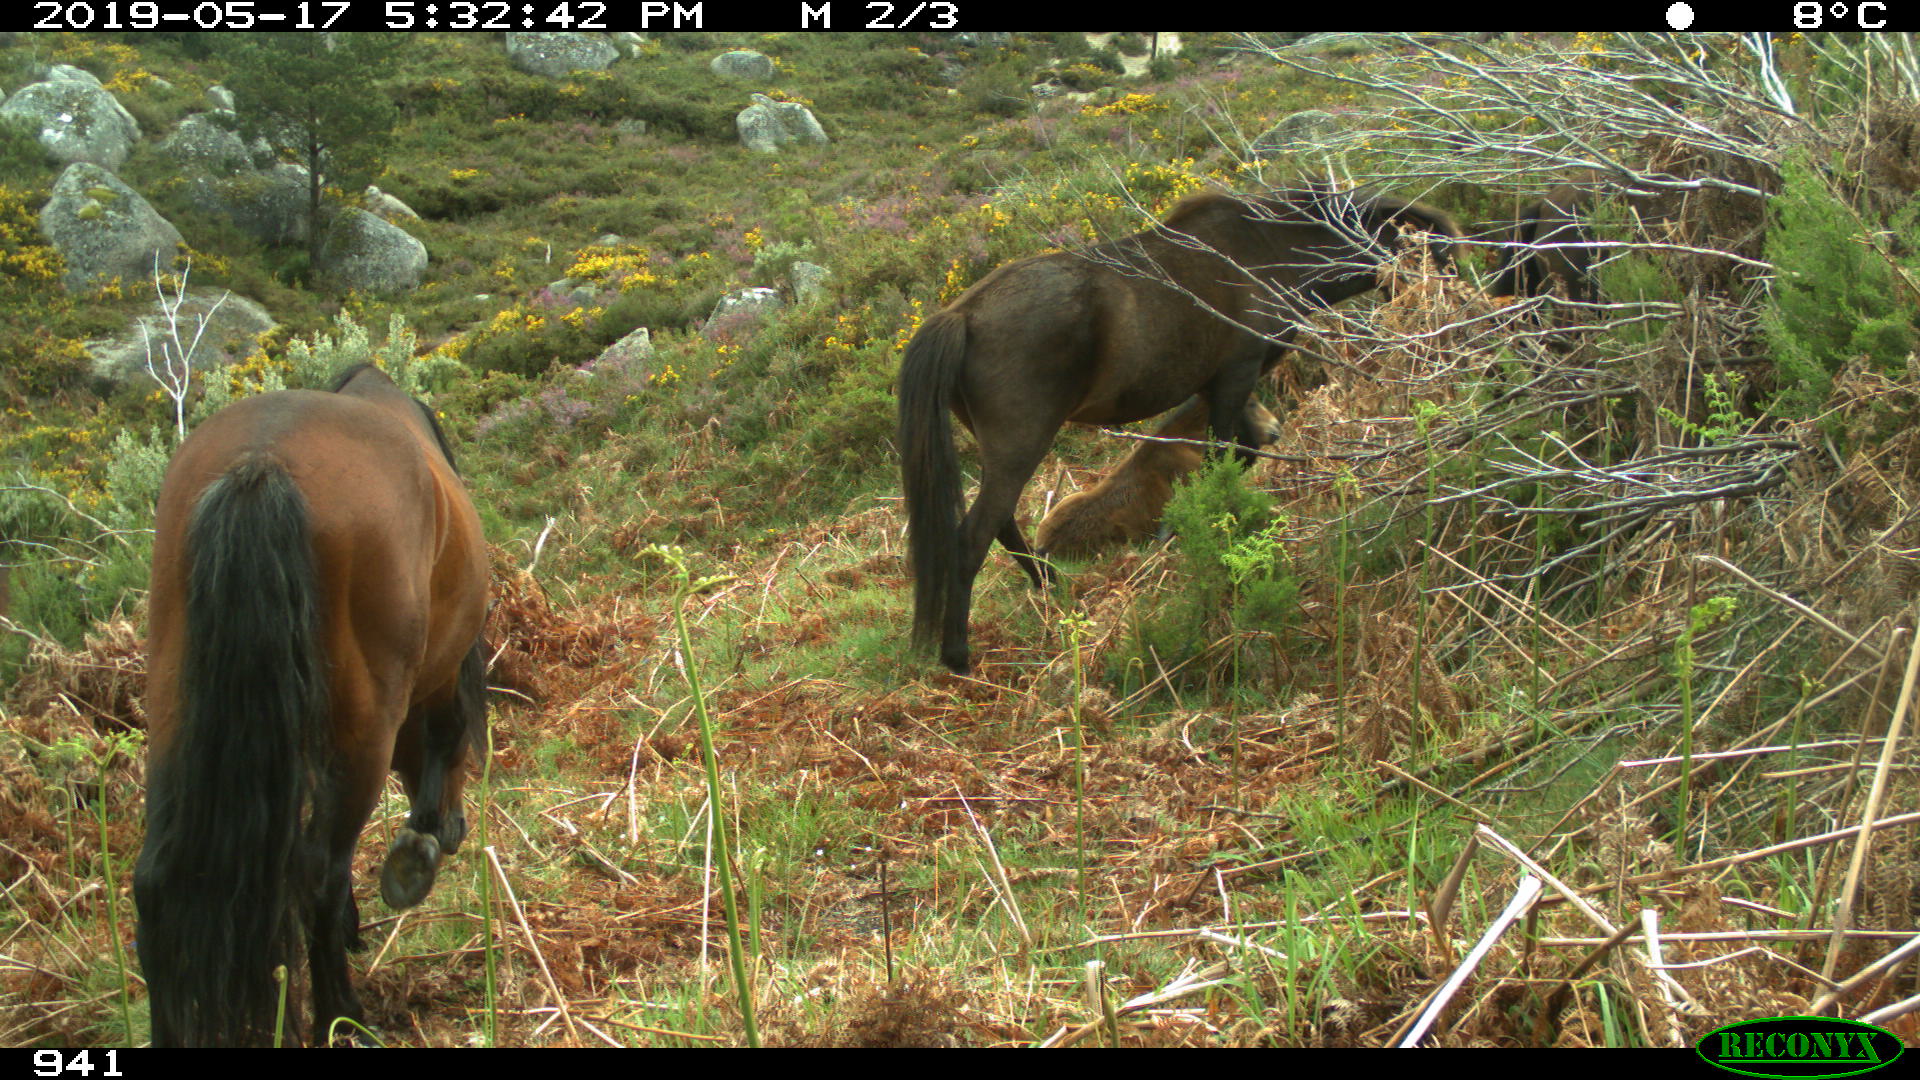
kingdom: Animalia
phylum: Chordata
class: Mammalia
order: Perissodactyla
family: Equidae
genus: Equus
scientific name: Equus caballus
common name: Horse
